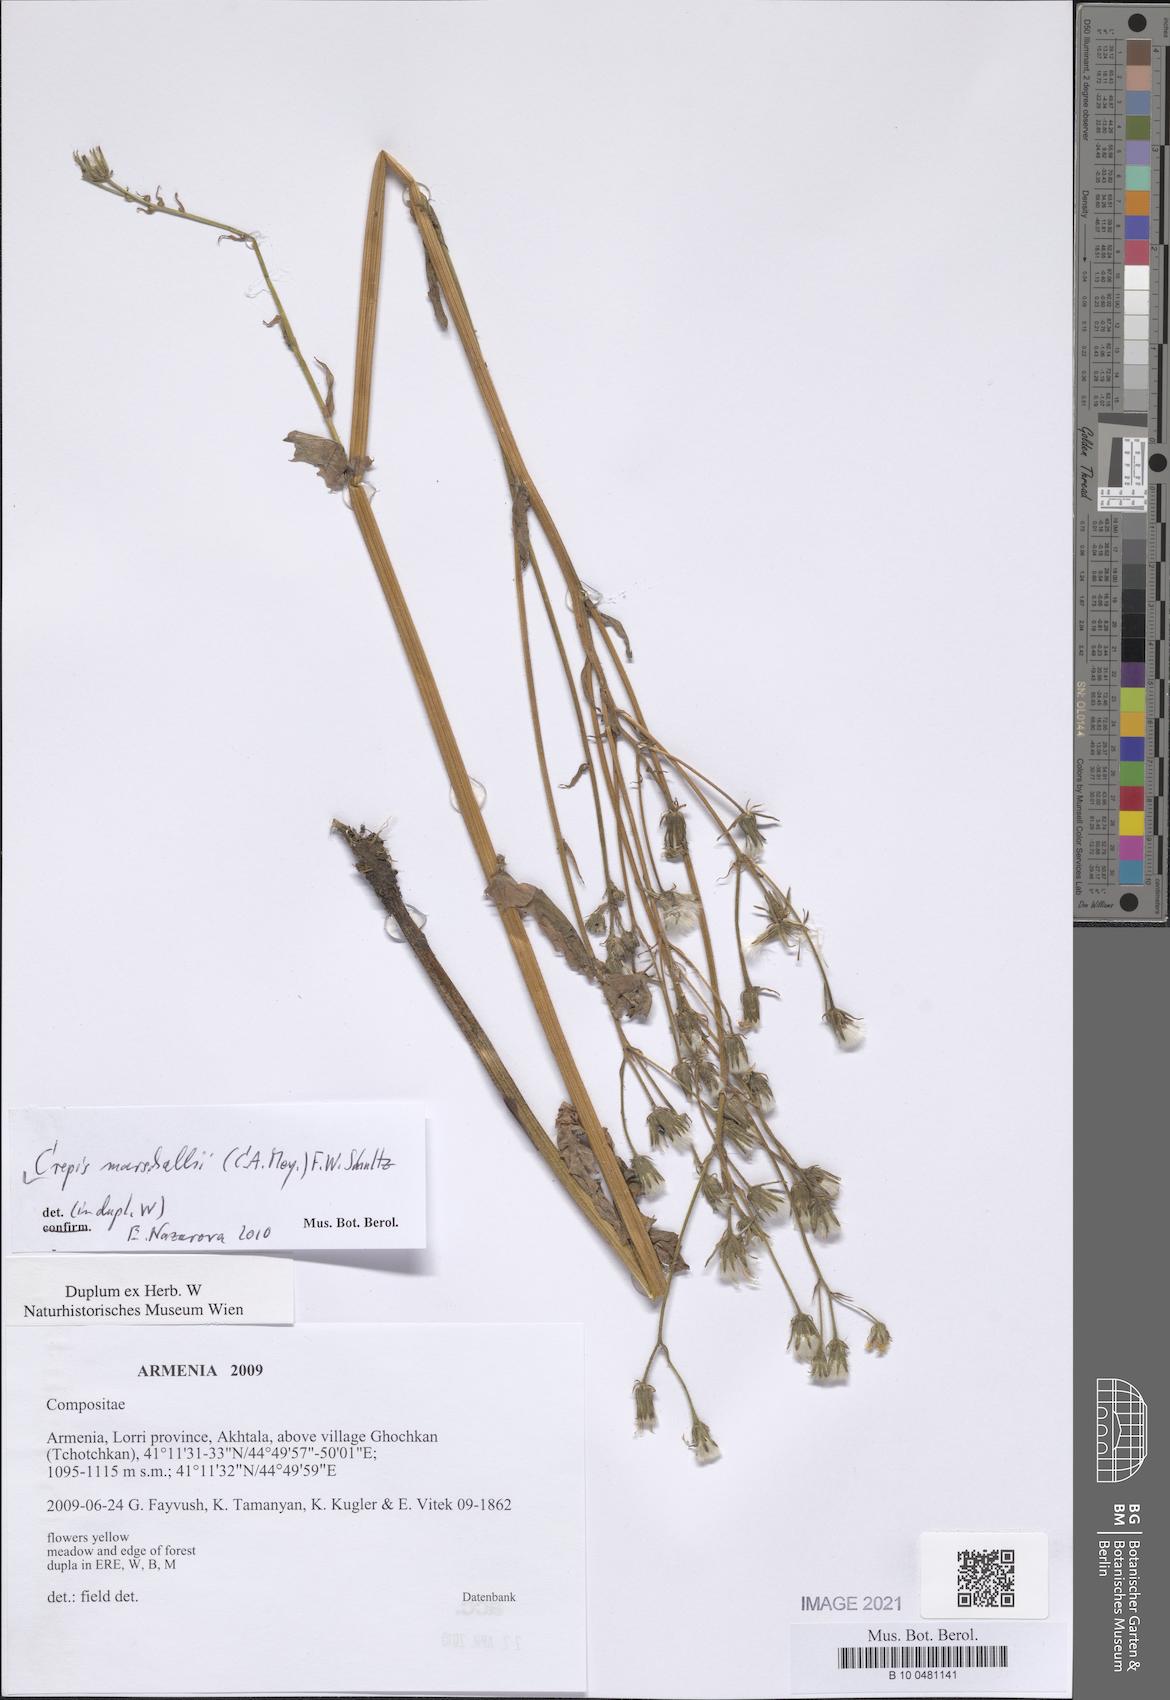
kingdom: Plantae
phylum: Tracheophyta
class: Magnoliopsida
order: Asterales
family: Asteraceae
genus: Crepis
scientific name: Crepis marschallii
